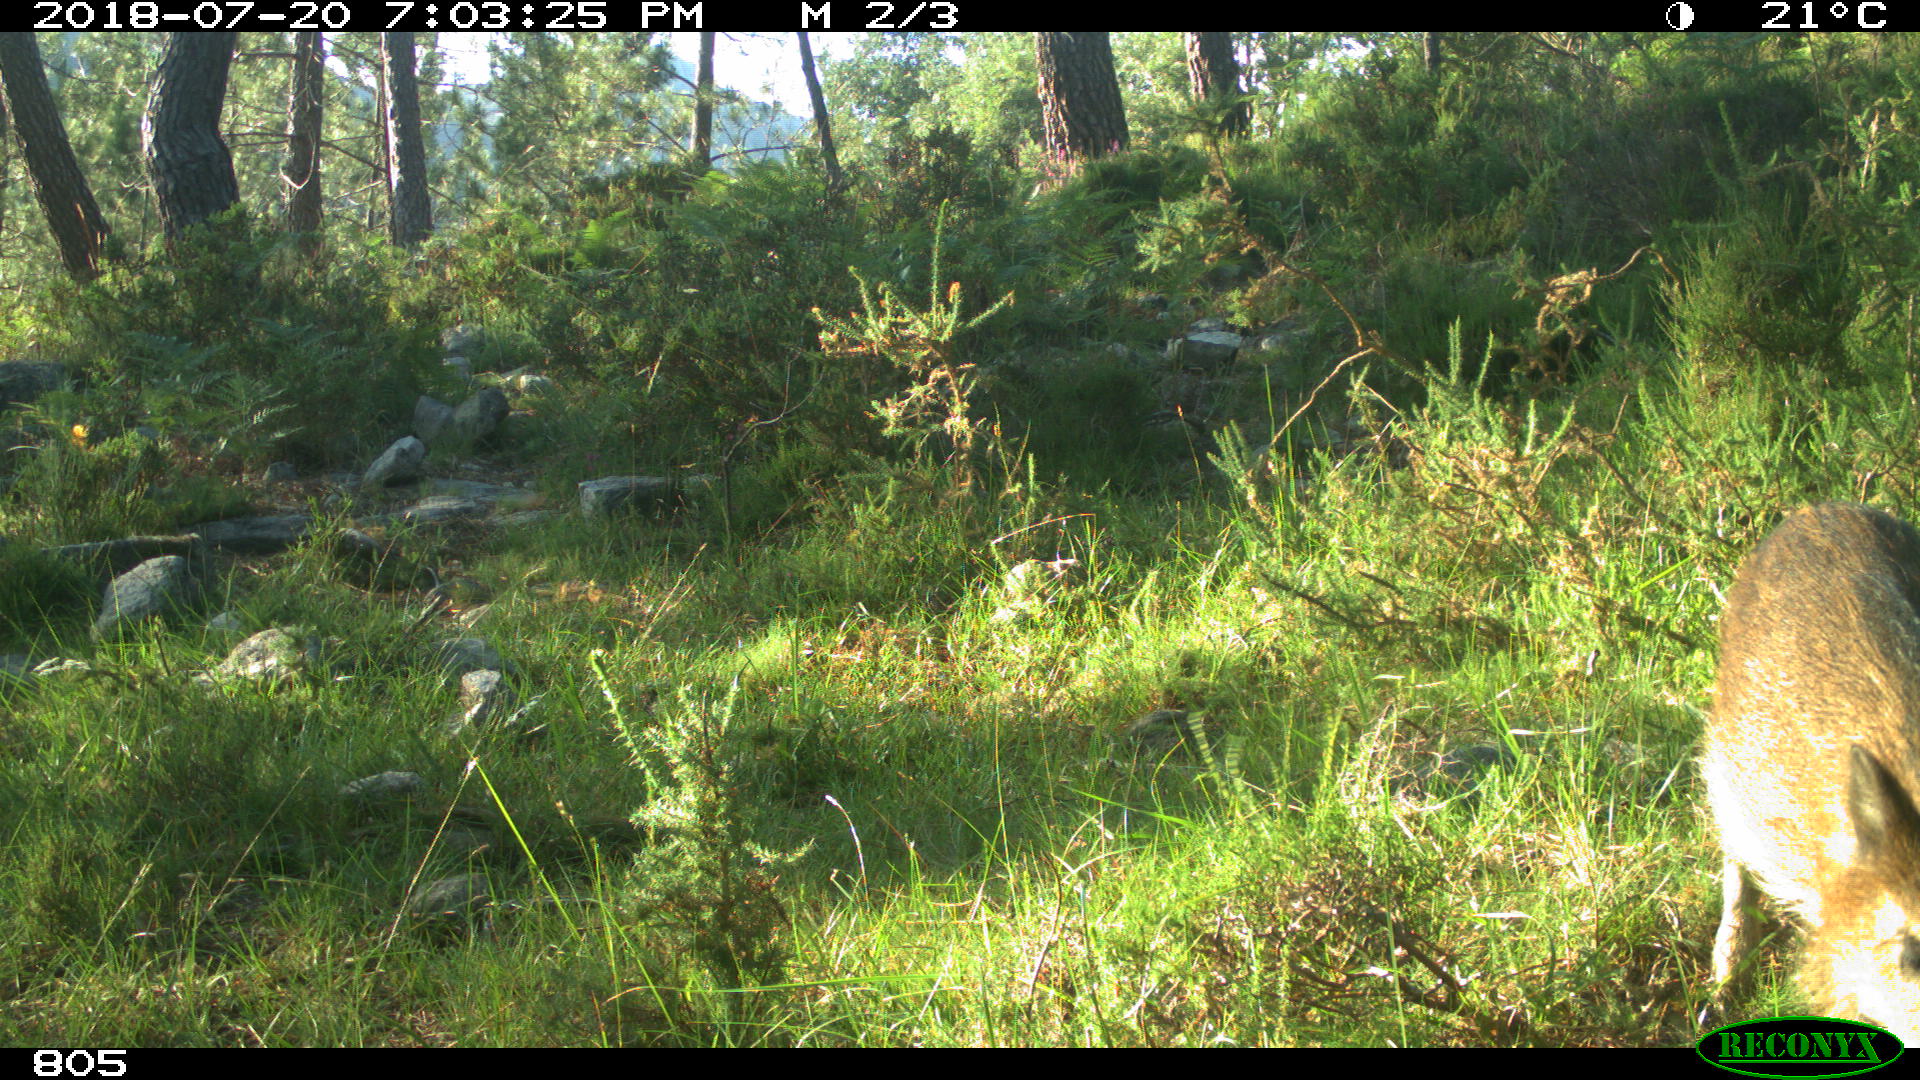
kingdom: Animalia
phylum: Chordata
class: Mammalia
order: Artiodactyla
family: Suidae
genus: Sus
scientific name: Sus scrofa
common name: Wild boar
